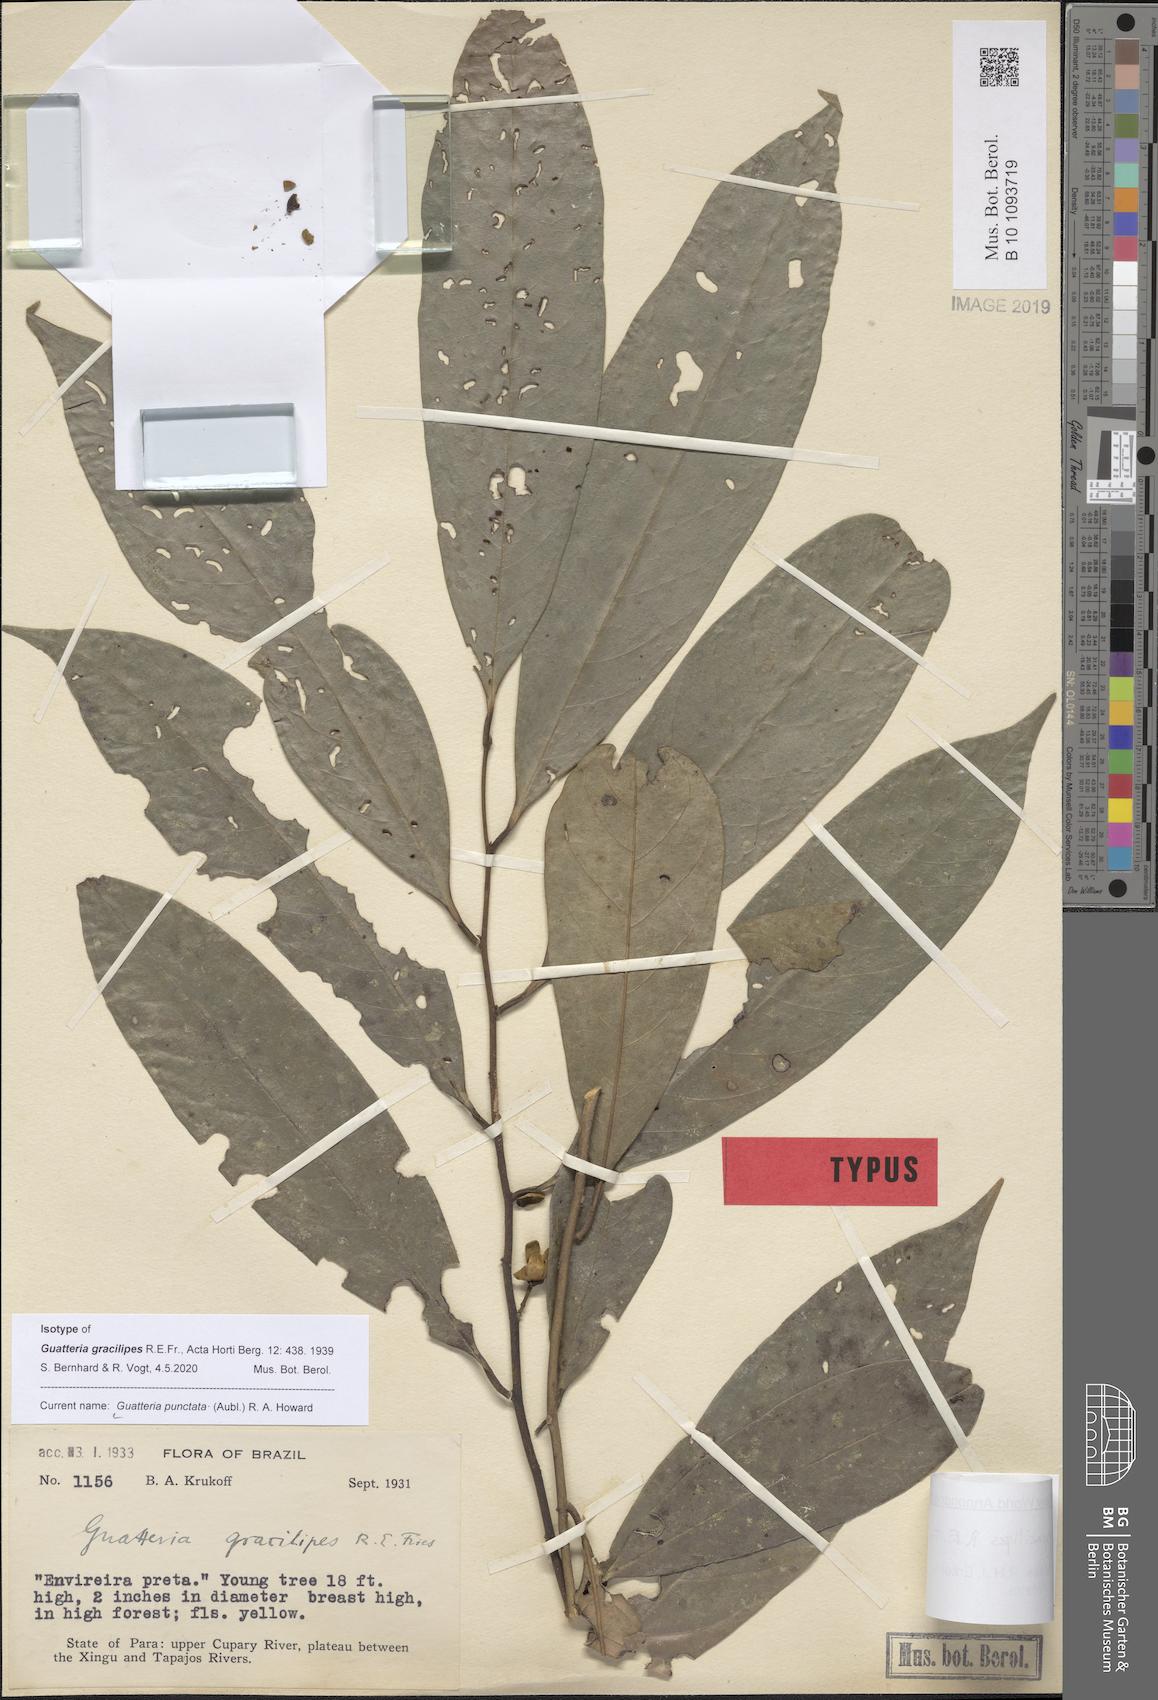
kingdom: Plantae
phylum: Tracheophyta
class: Magnoliopsida
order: Magnoliales
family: Annonaceae
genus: Guatteria
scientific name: Guatteria punctata
